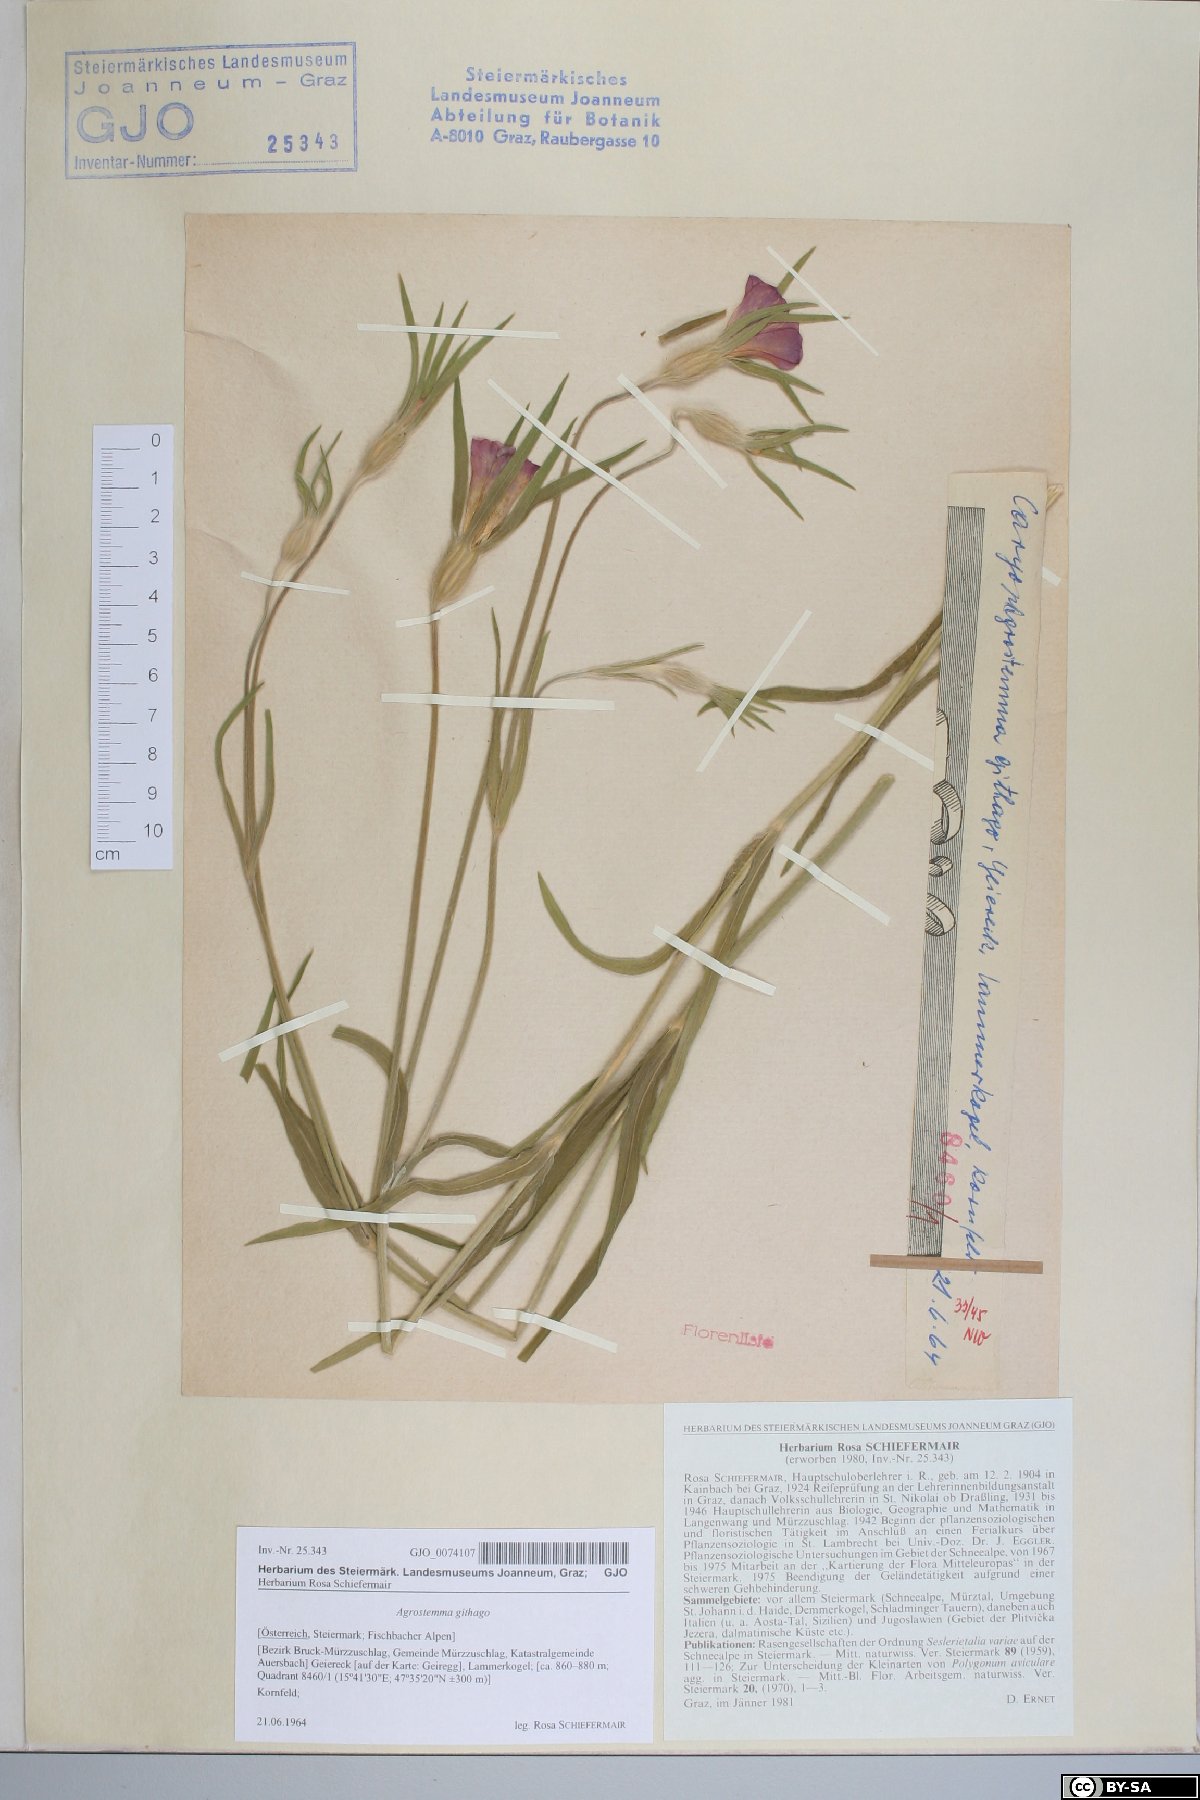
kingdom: Plantae
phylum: Tracheophyta
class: Magnoliopsida
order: Caryophyllales
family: Caryophyllaceae
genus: Agrostemma
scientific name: Agrostemma githago
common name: Common corncockle
